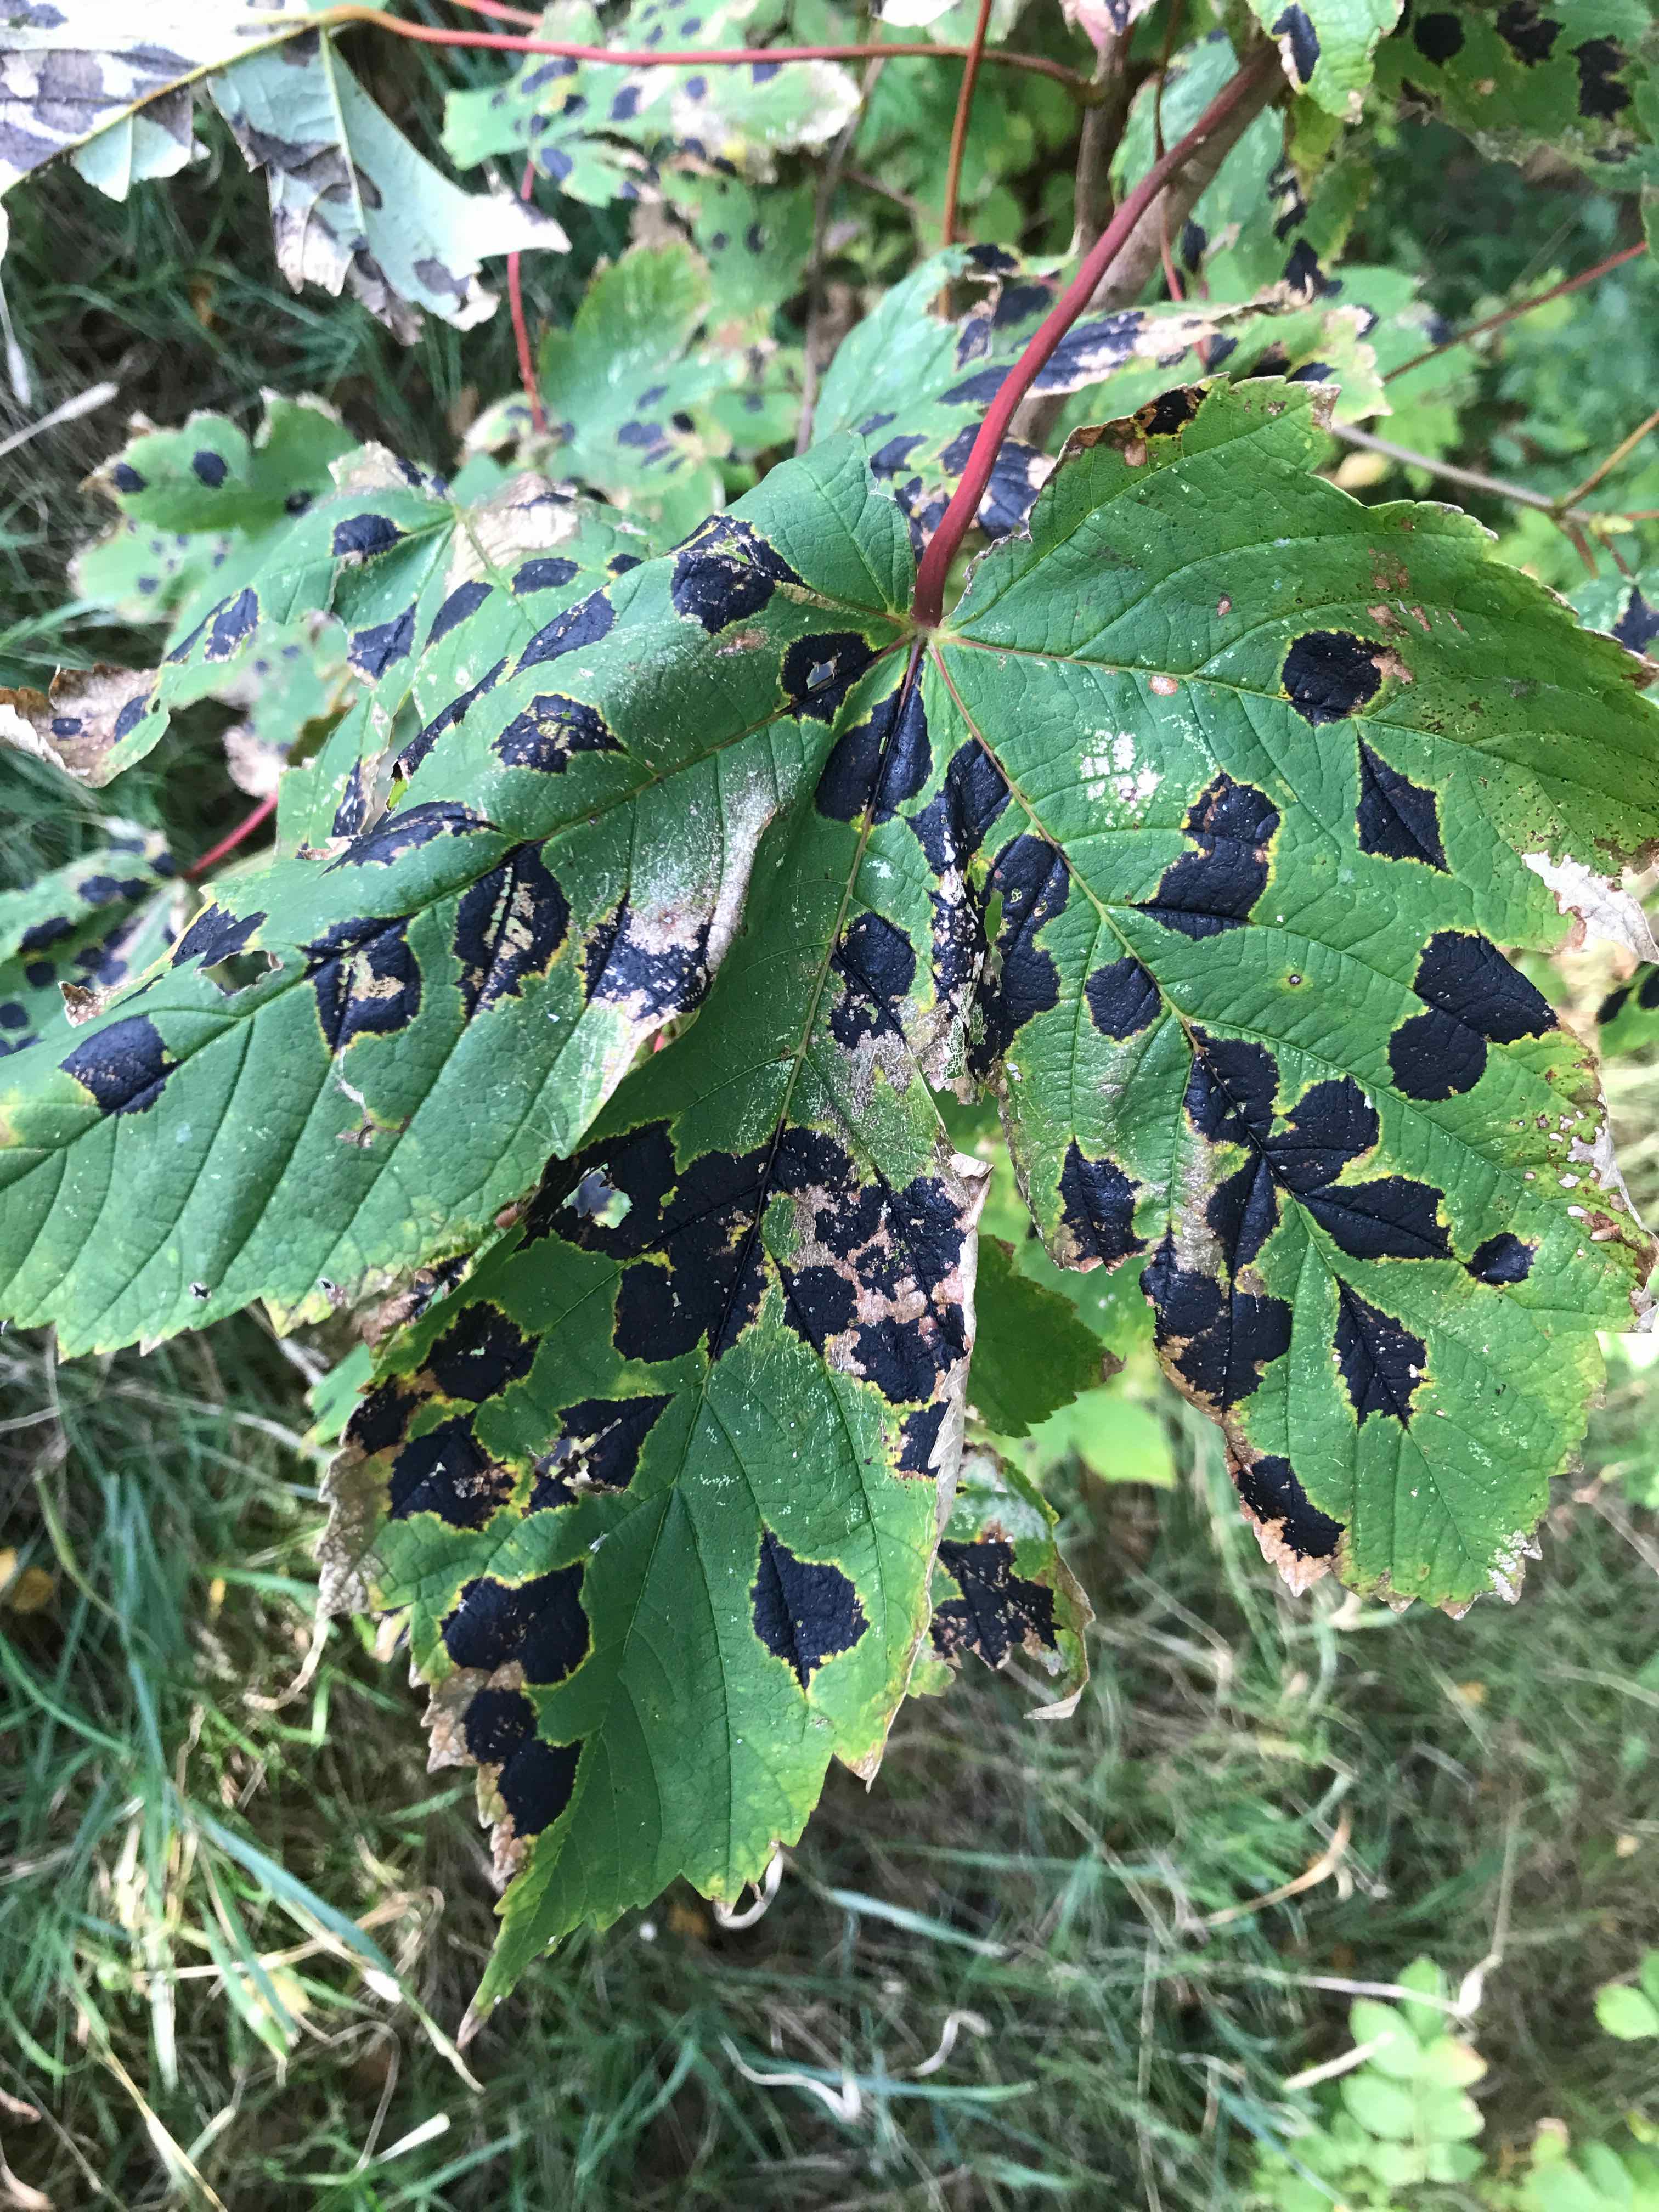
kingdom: Fungi
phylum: Ascomycota
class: Leotiomycetes
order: Rhytismatales
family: Rhytismataceae
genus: Rhytisma
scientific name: Rhytisma acerinum
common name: ahorn-rynkeplet
